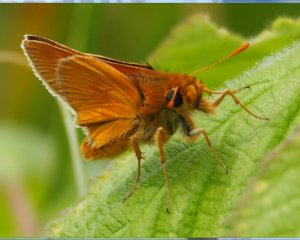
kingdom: Animalia
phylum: Arthropoda
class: Insecta
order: Lepidoptera
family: Hesperiidae
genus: Polites
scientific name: Polites
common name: Long Dash Skipper
